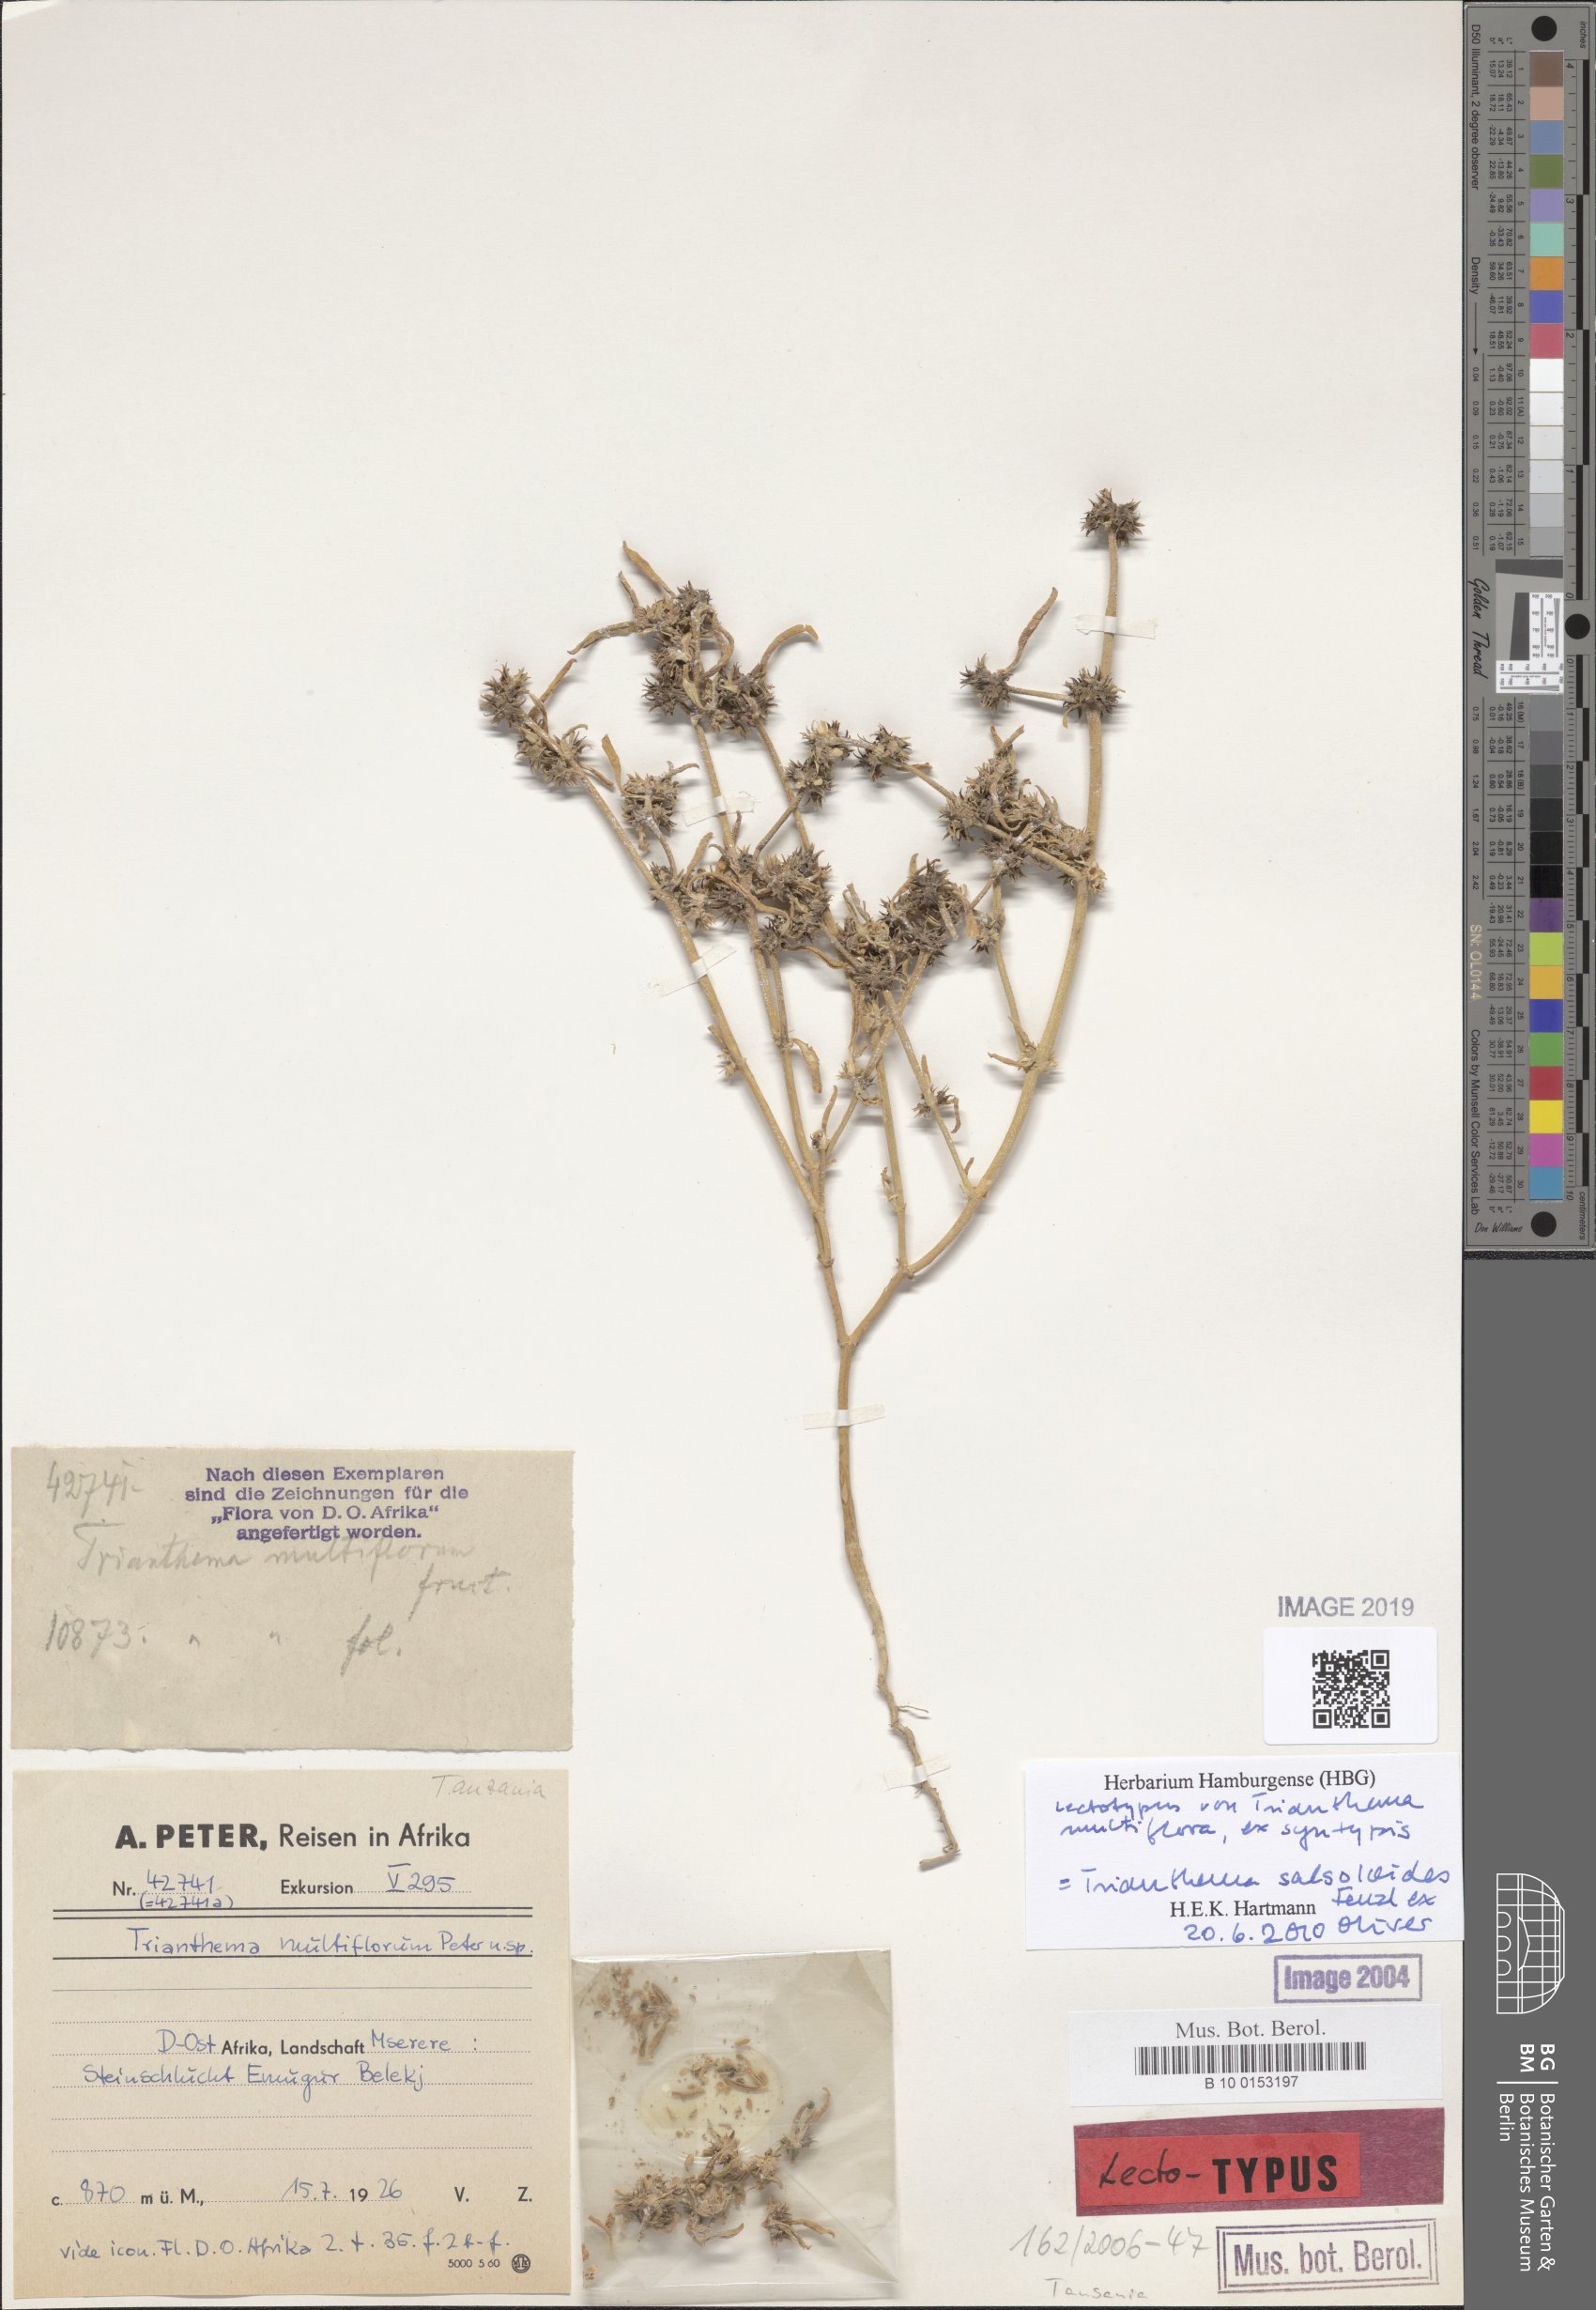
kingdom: Plantae
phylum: Tracheophyta
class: Magnoliopsida
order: Caryophyllales
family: Aizoaceae
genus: Trianthema
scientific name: Trianthema salsoloides
